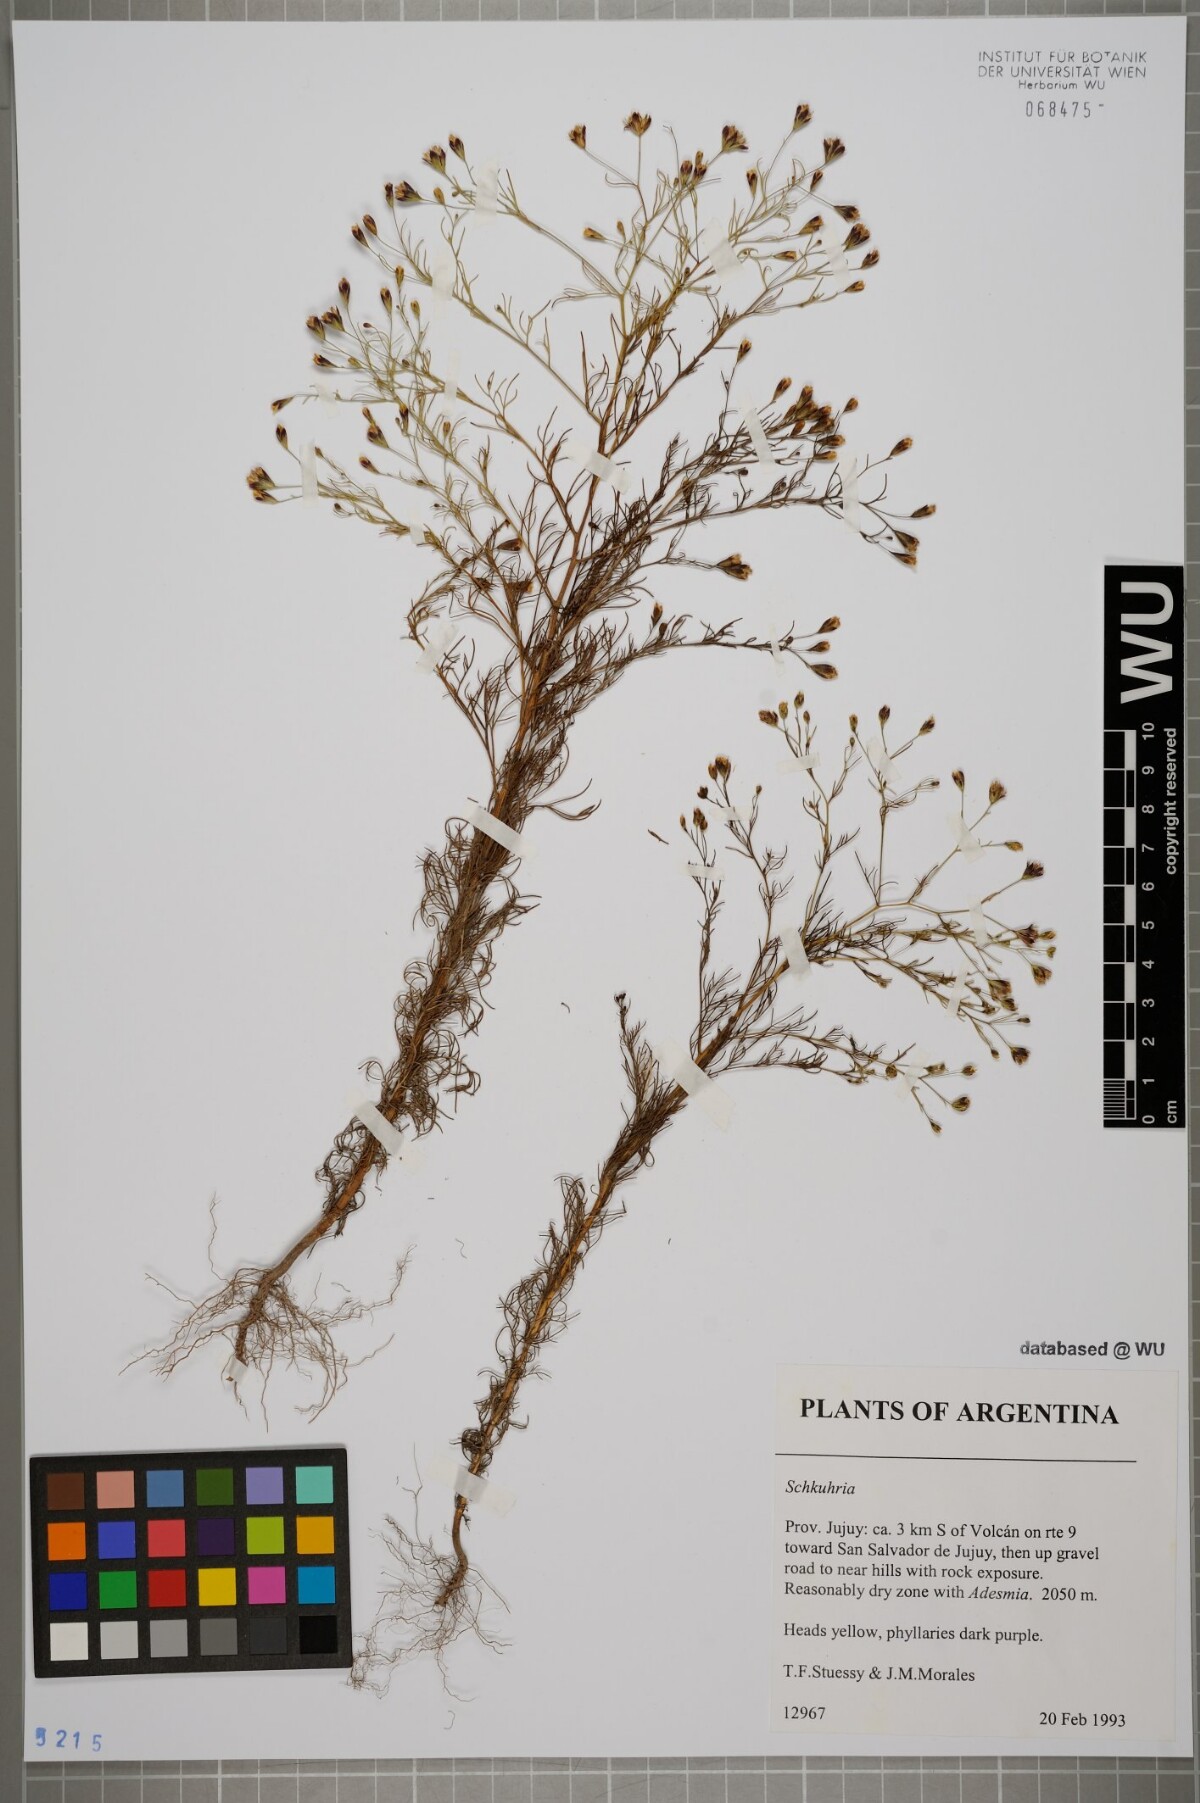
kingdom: Plantae
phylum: Tracheophyta
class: Magnoliopsida
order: Asterales
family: Asteraceae
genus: Schkuhria
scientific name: Schkuhria
